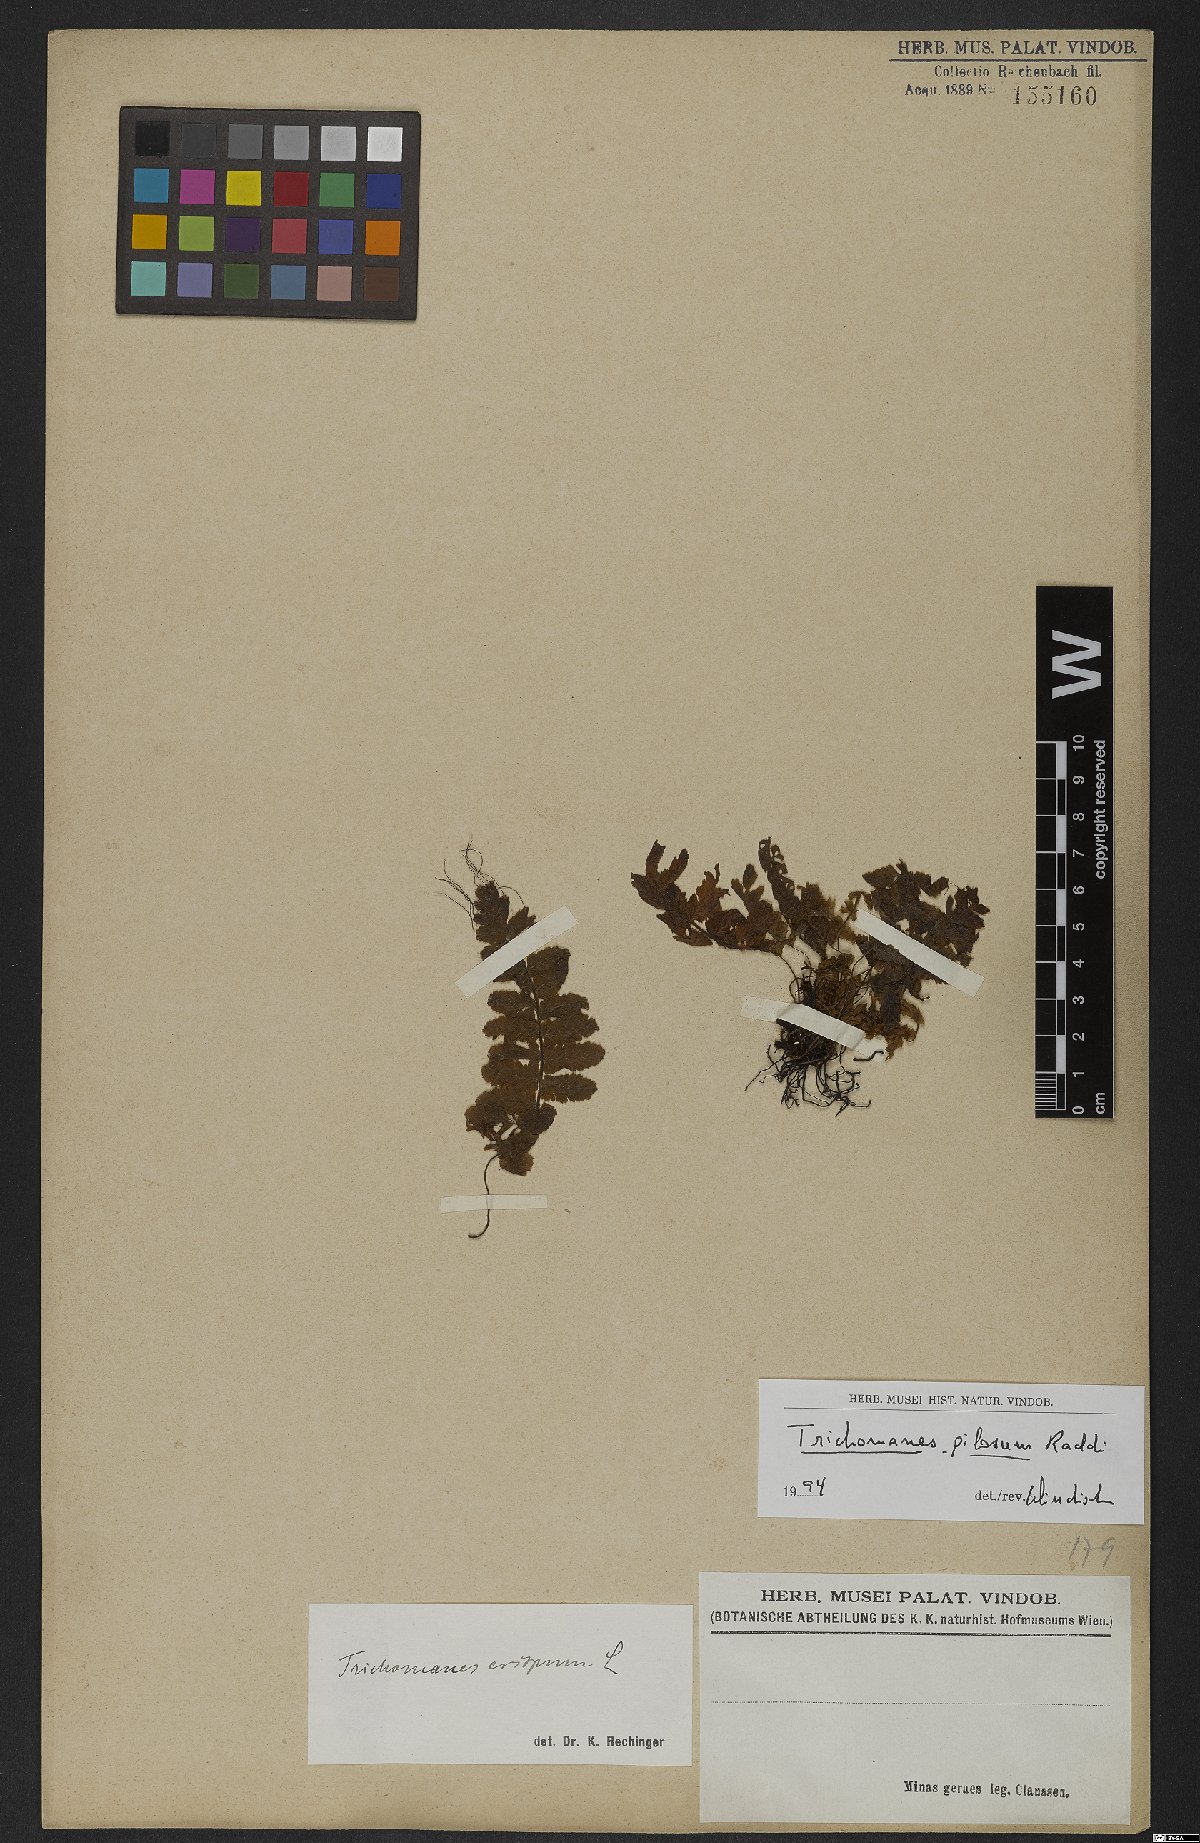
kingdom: Plantae
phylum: Tracheophyta
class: Polypodiopsida
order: Hymenophyllales
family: Hymenophyllaceae
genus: Trichomanes
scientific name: Trichomanes pilosum
